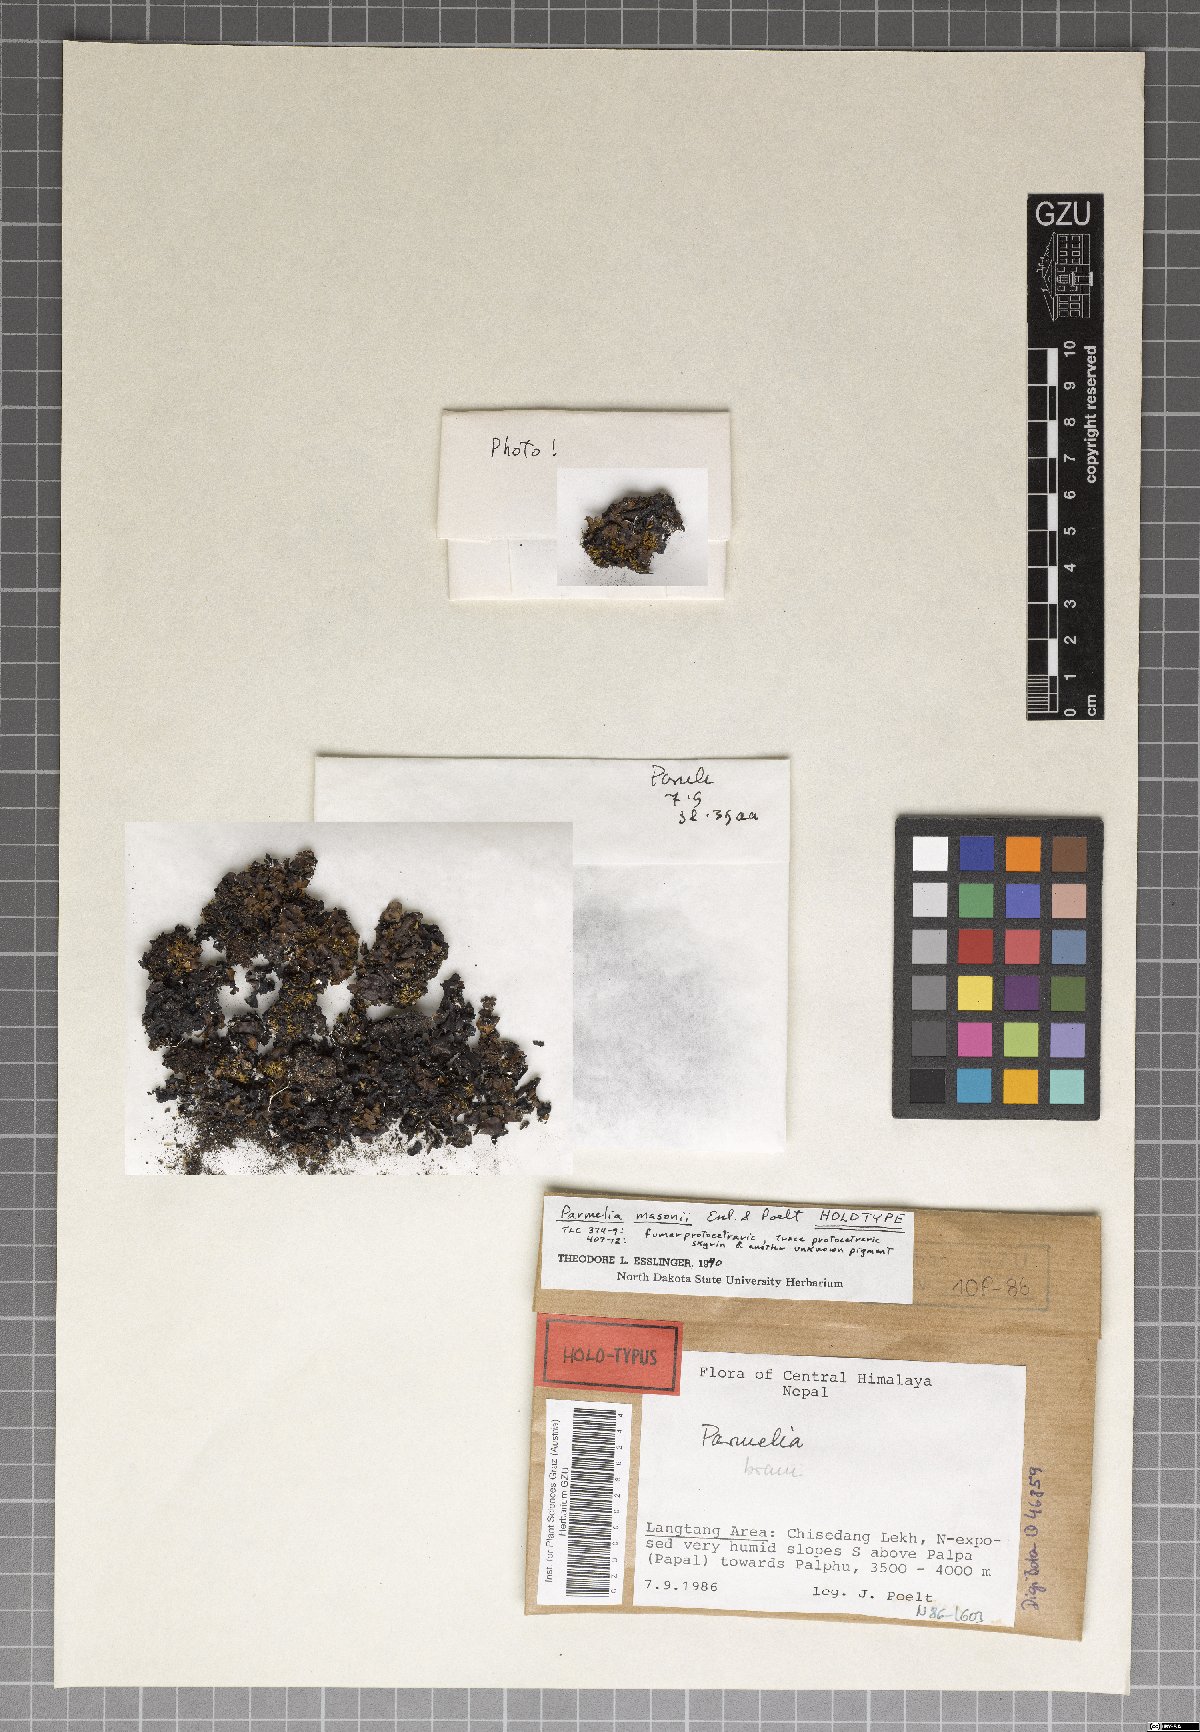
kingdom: Fungi
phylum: Ascomycota
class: Lecanoromycetes
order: Lecanorales
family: Parmeliaceae
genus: Parmelinella
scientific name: Parmelinella
